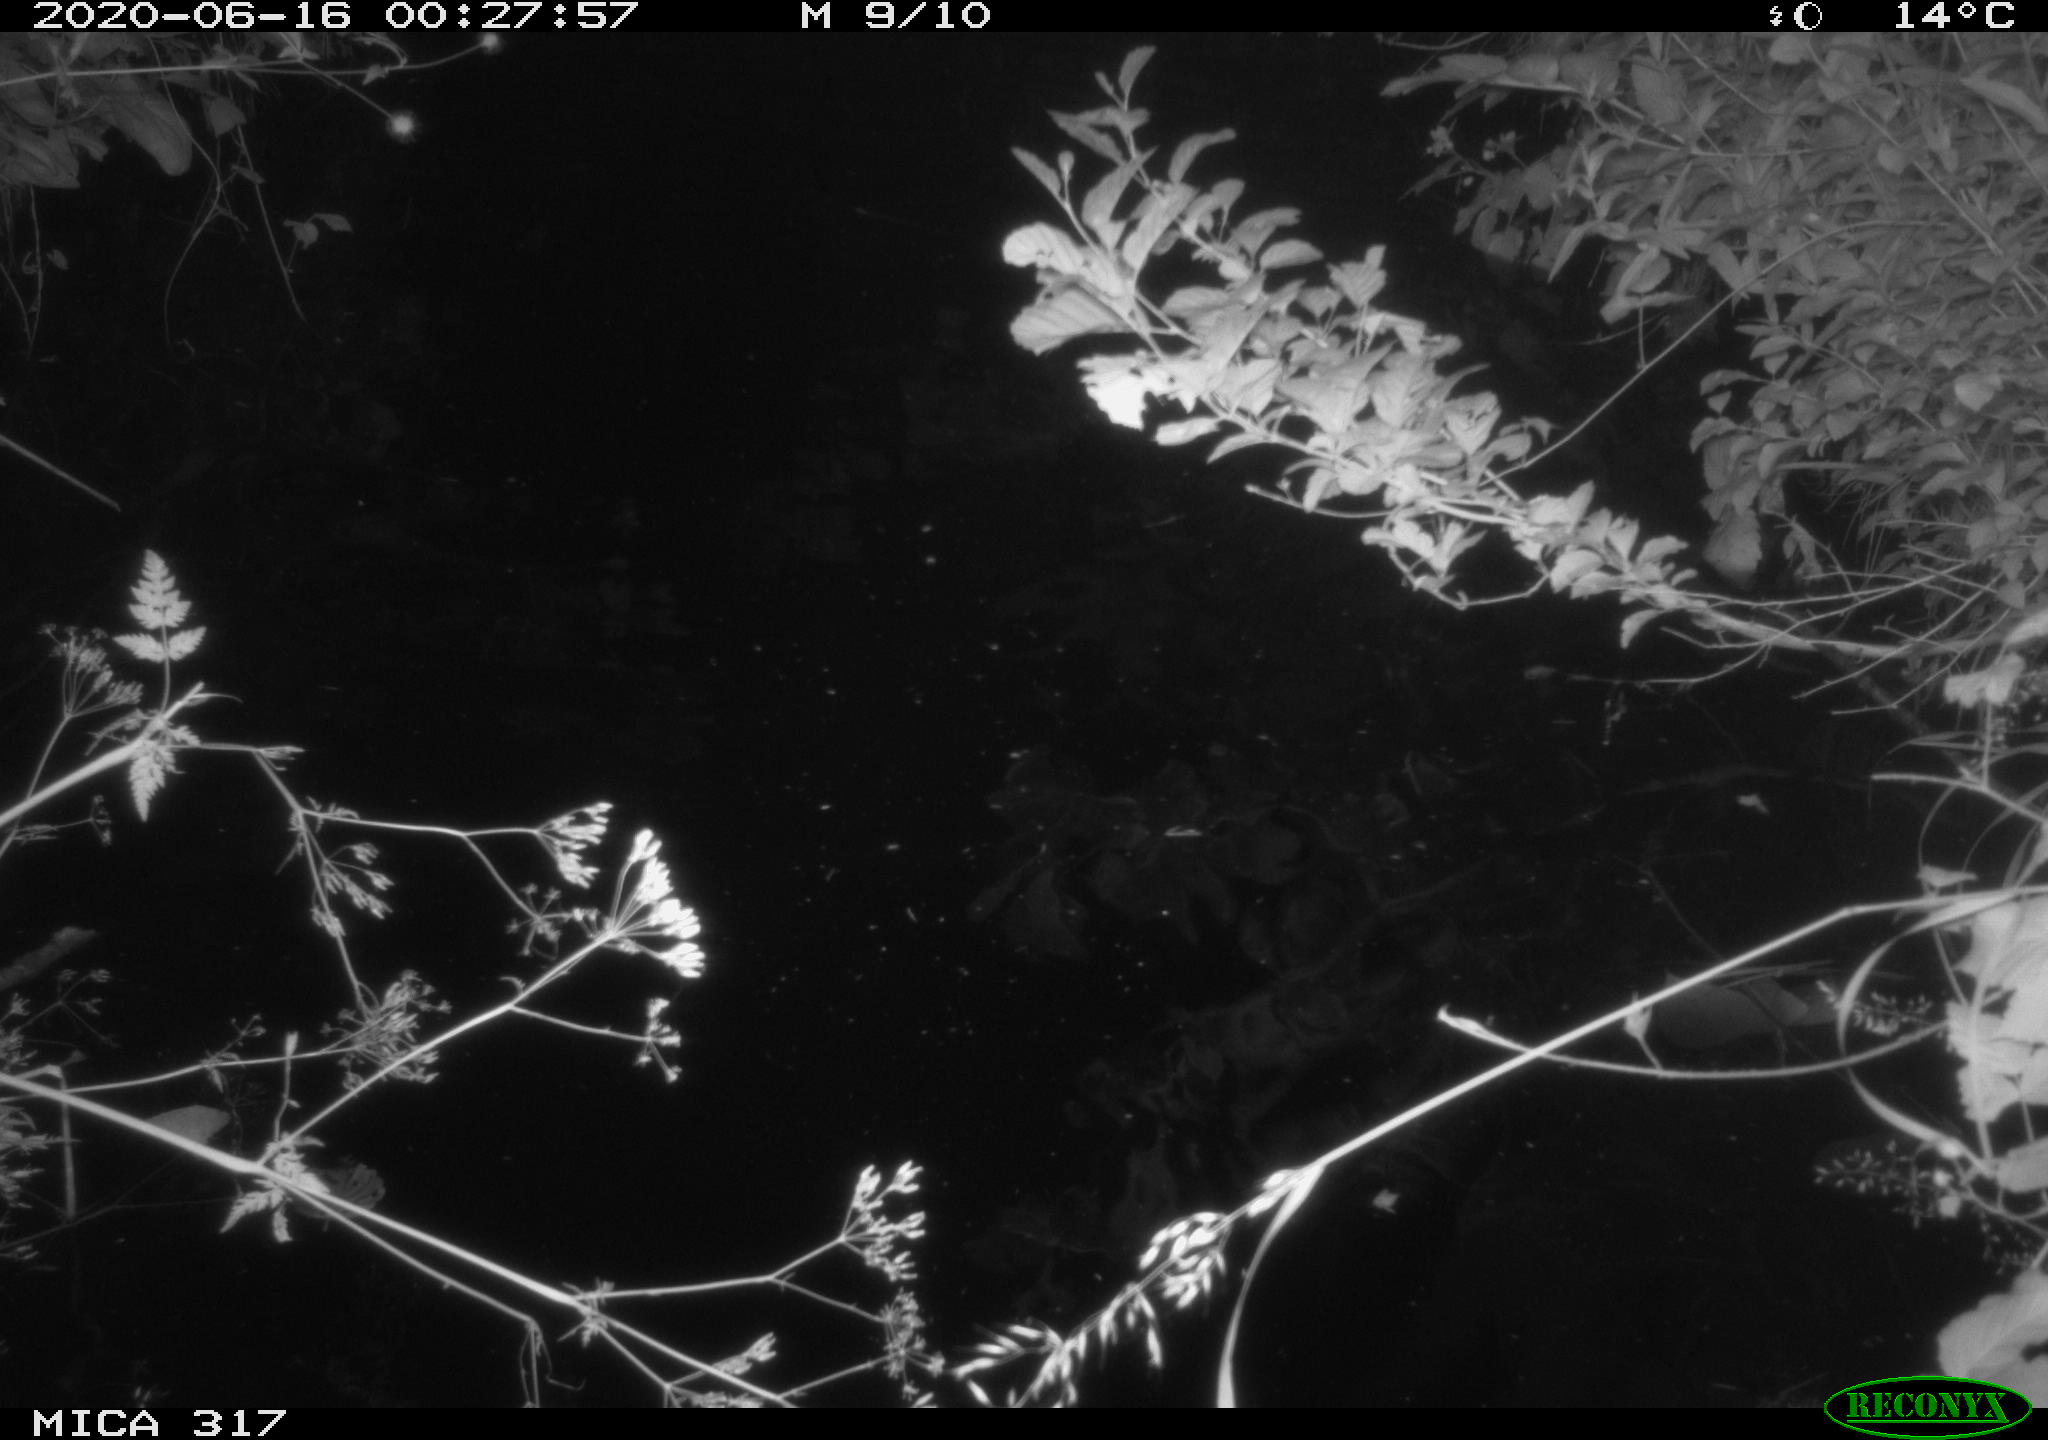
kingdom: Animalia
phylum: Chordata
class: Aves
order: Anseriformes
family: Anatidae
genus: Anas
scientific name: Anas platyrhynchos
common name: Mallard
